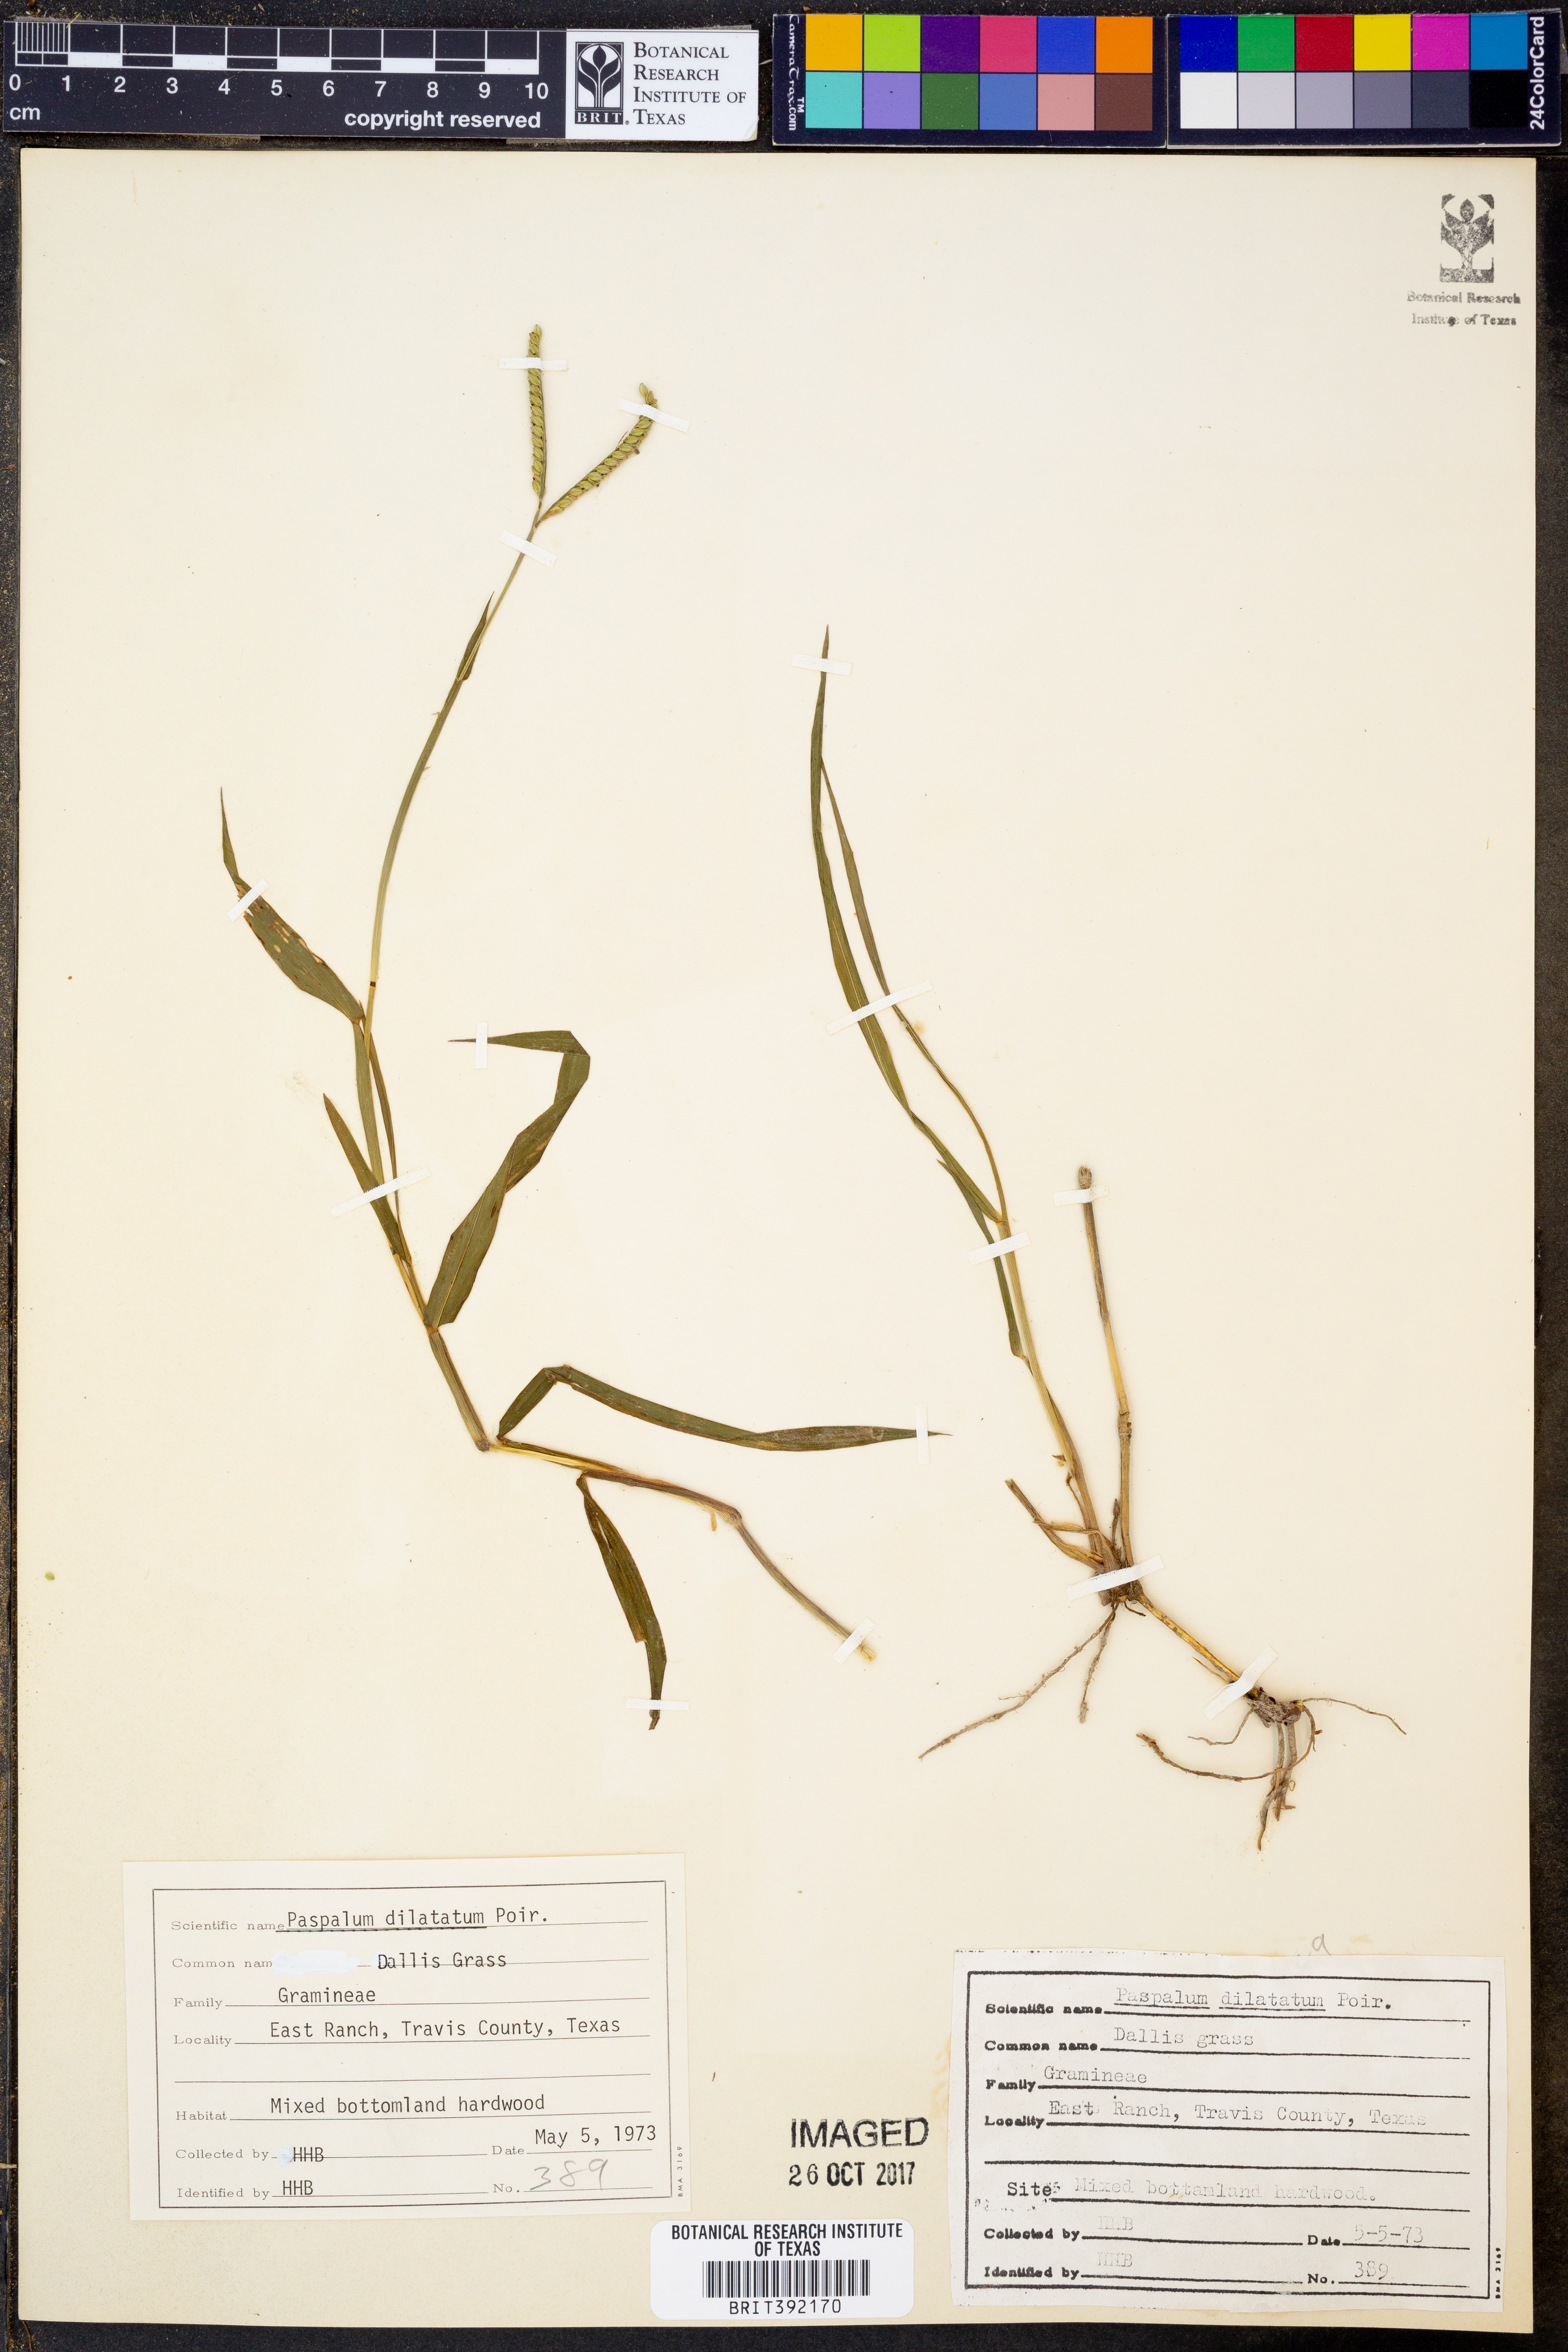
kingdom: Plantae
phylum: Tracheophyta
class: Liliopsida
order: Poales
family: Poaceae
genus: Paspalum
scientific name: Paspalum dilatatum
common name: Dallisgrass
